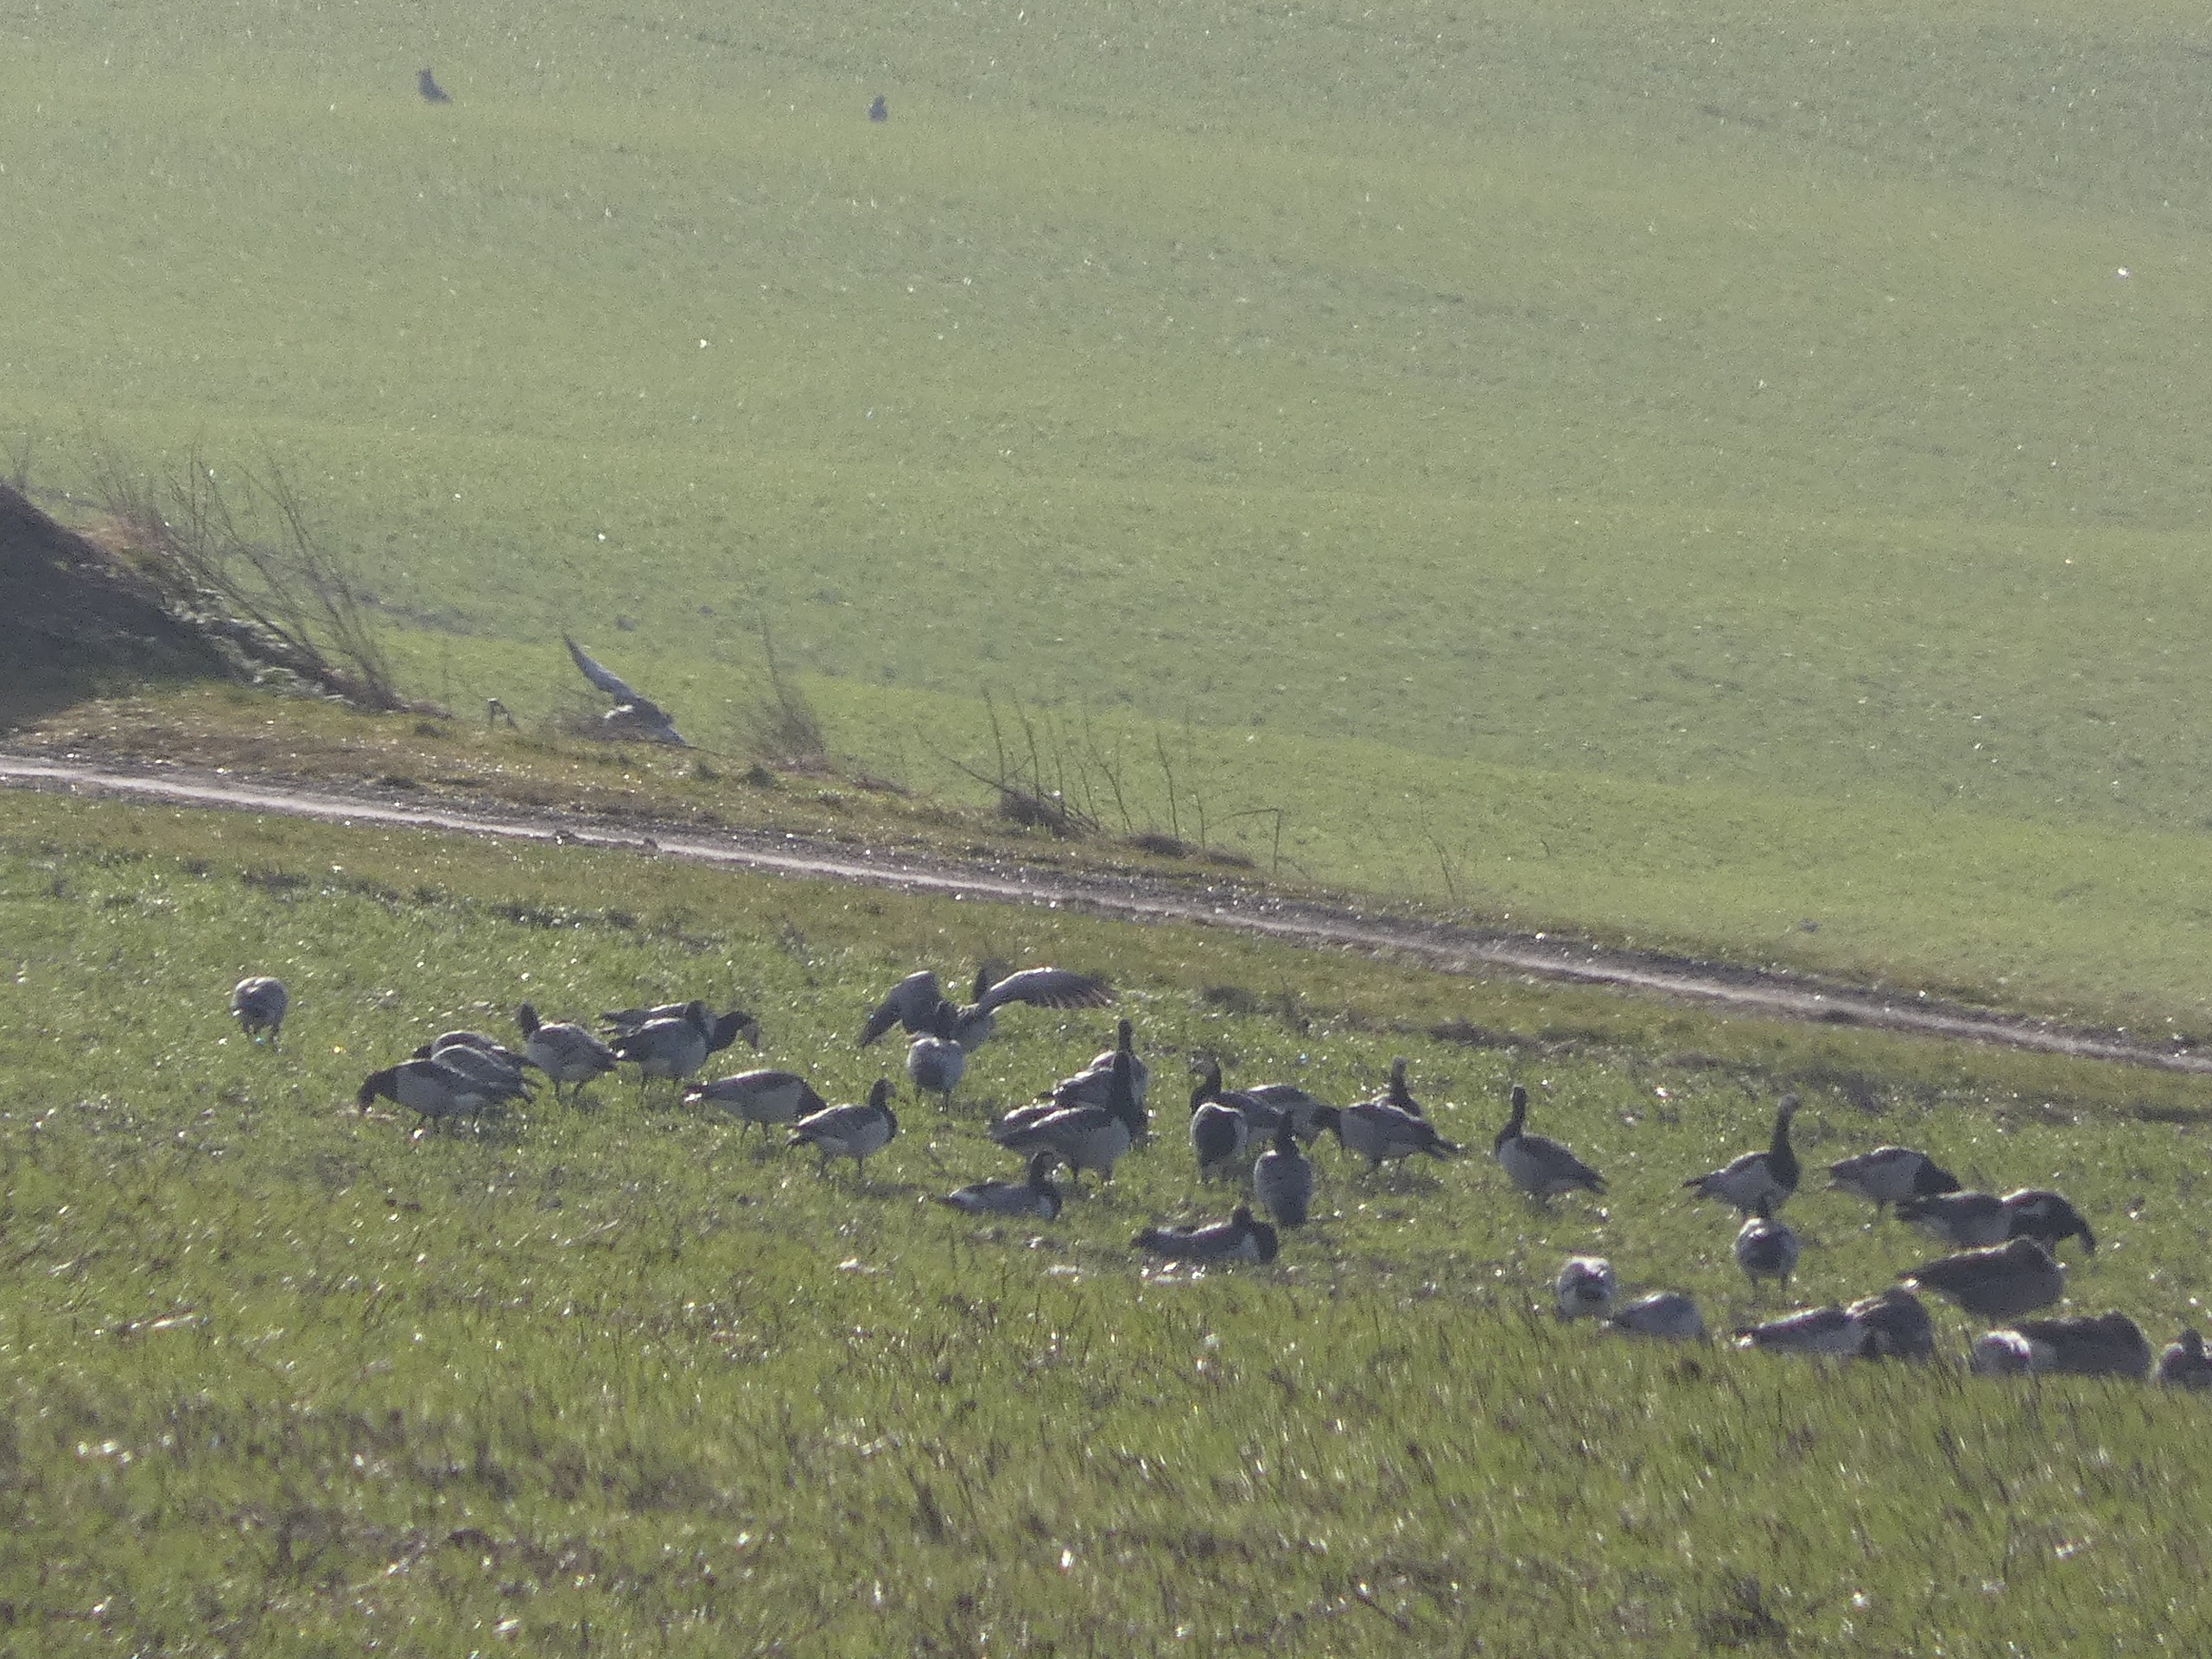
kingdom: Animalia
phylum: Chordata
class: Aves
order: Anseriformes
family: Anatidae
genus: Branta
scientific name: Branta leucopsis
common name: Bramgås
